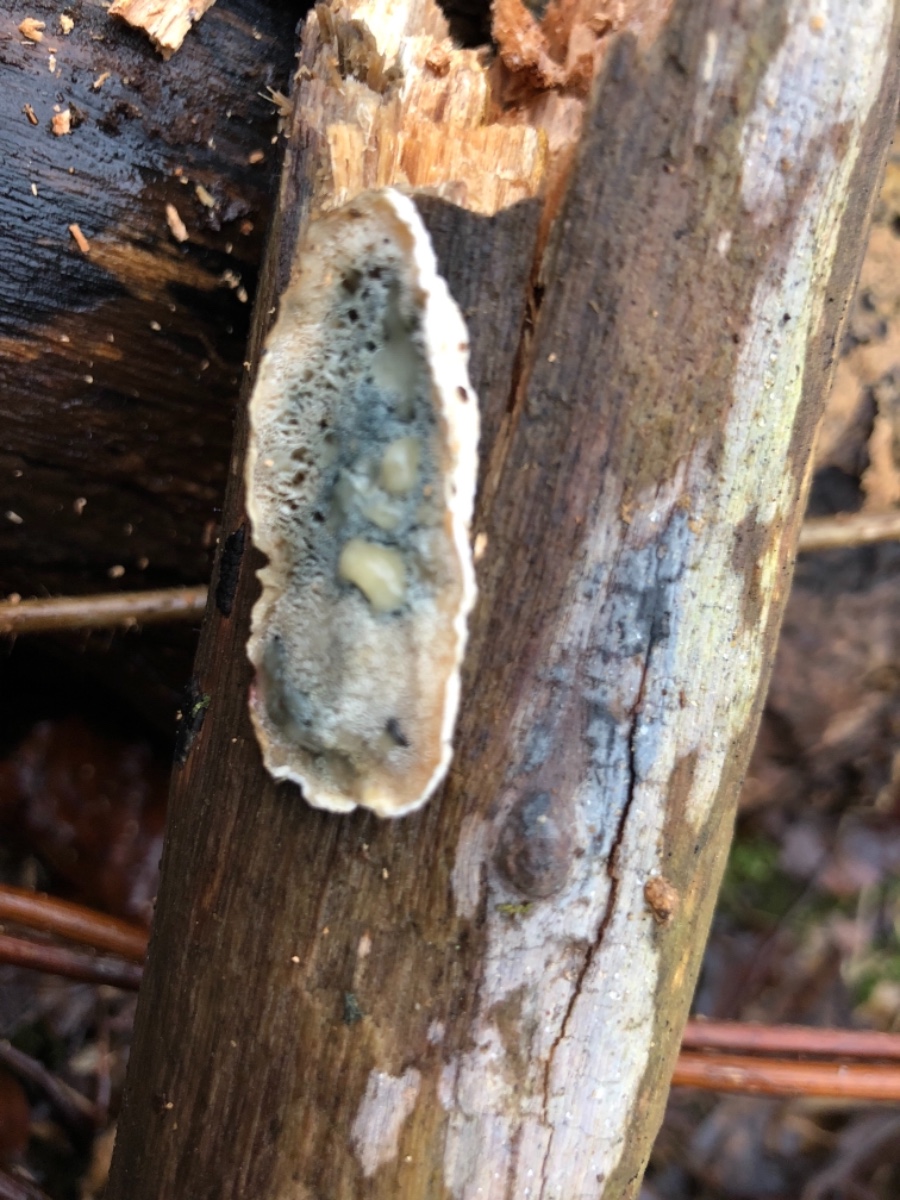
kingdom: Fungi
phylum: Basidiomycota
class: Agaricomycetes
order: Polyporales
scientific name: Polyporales
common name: poresvampordenen
